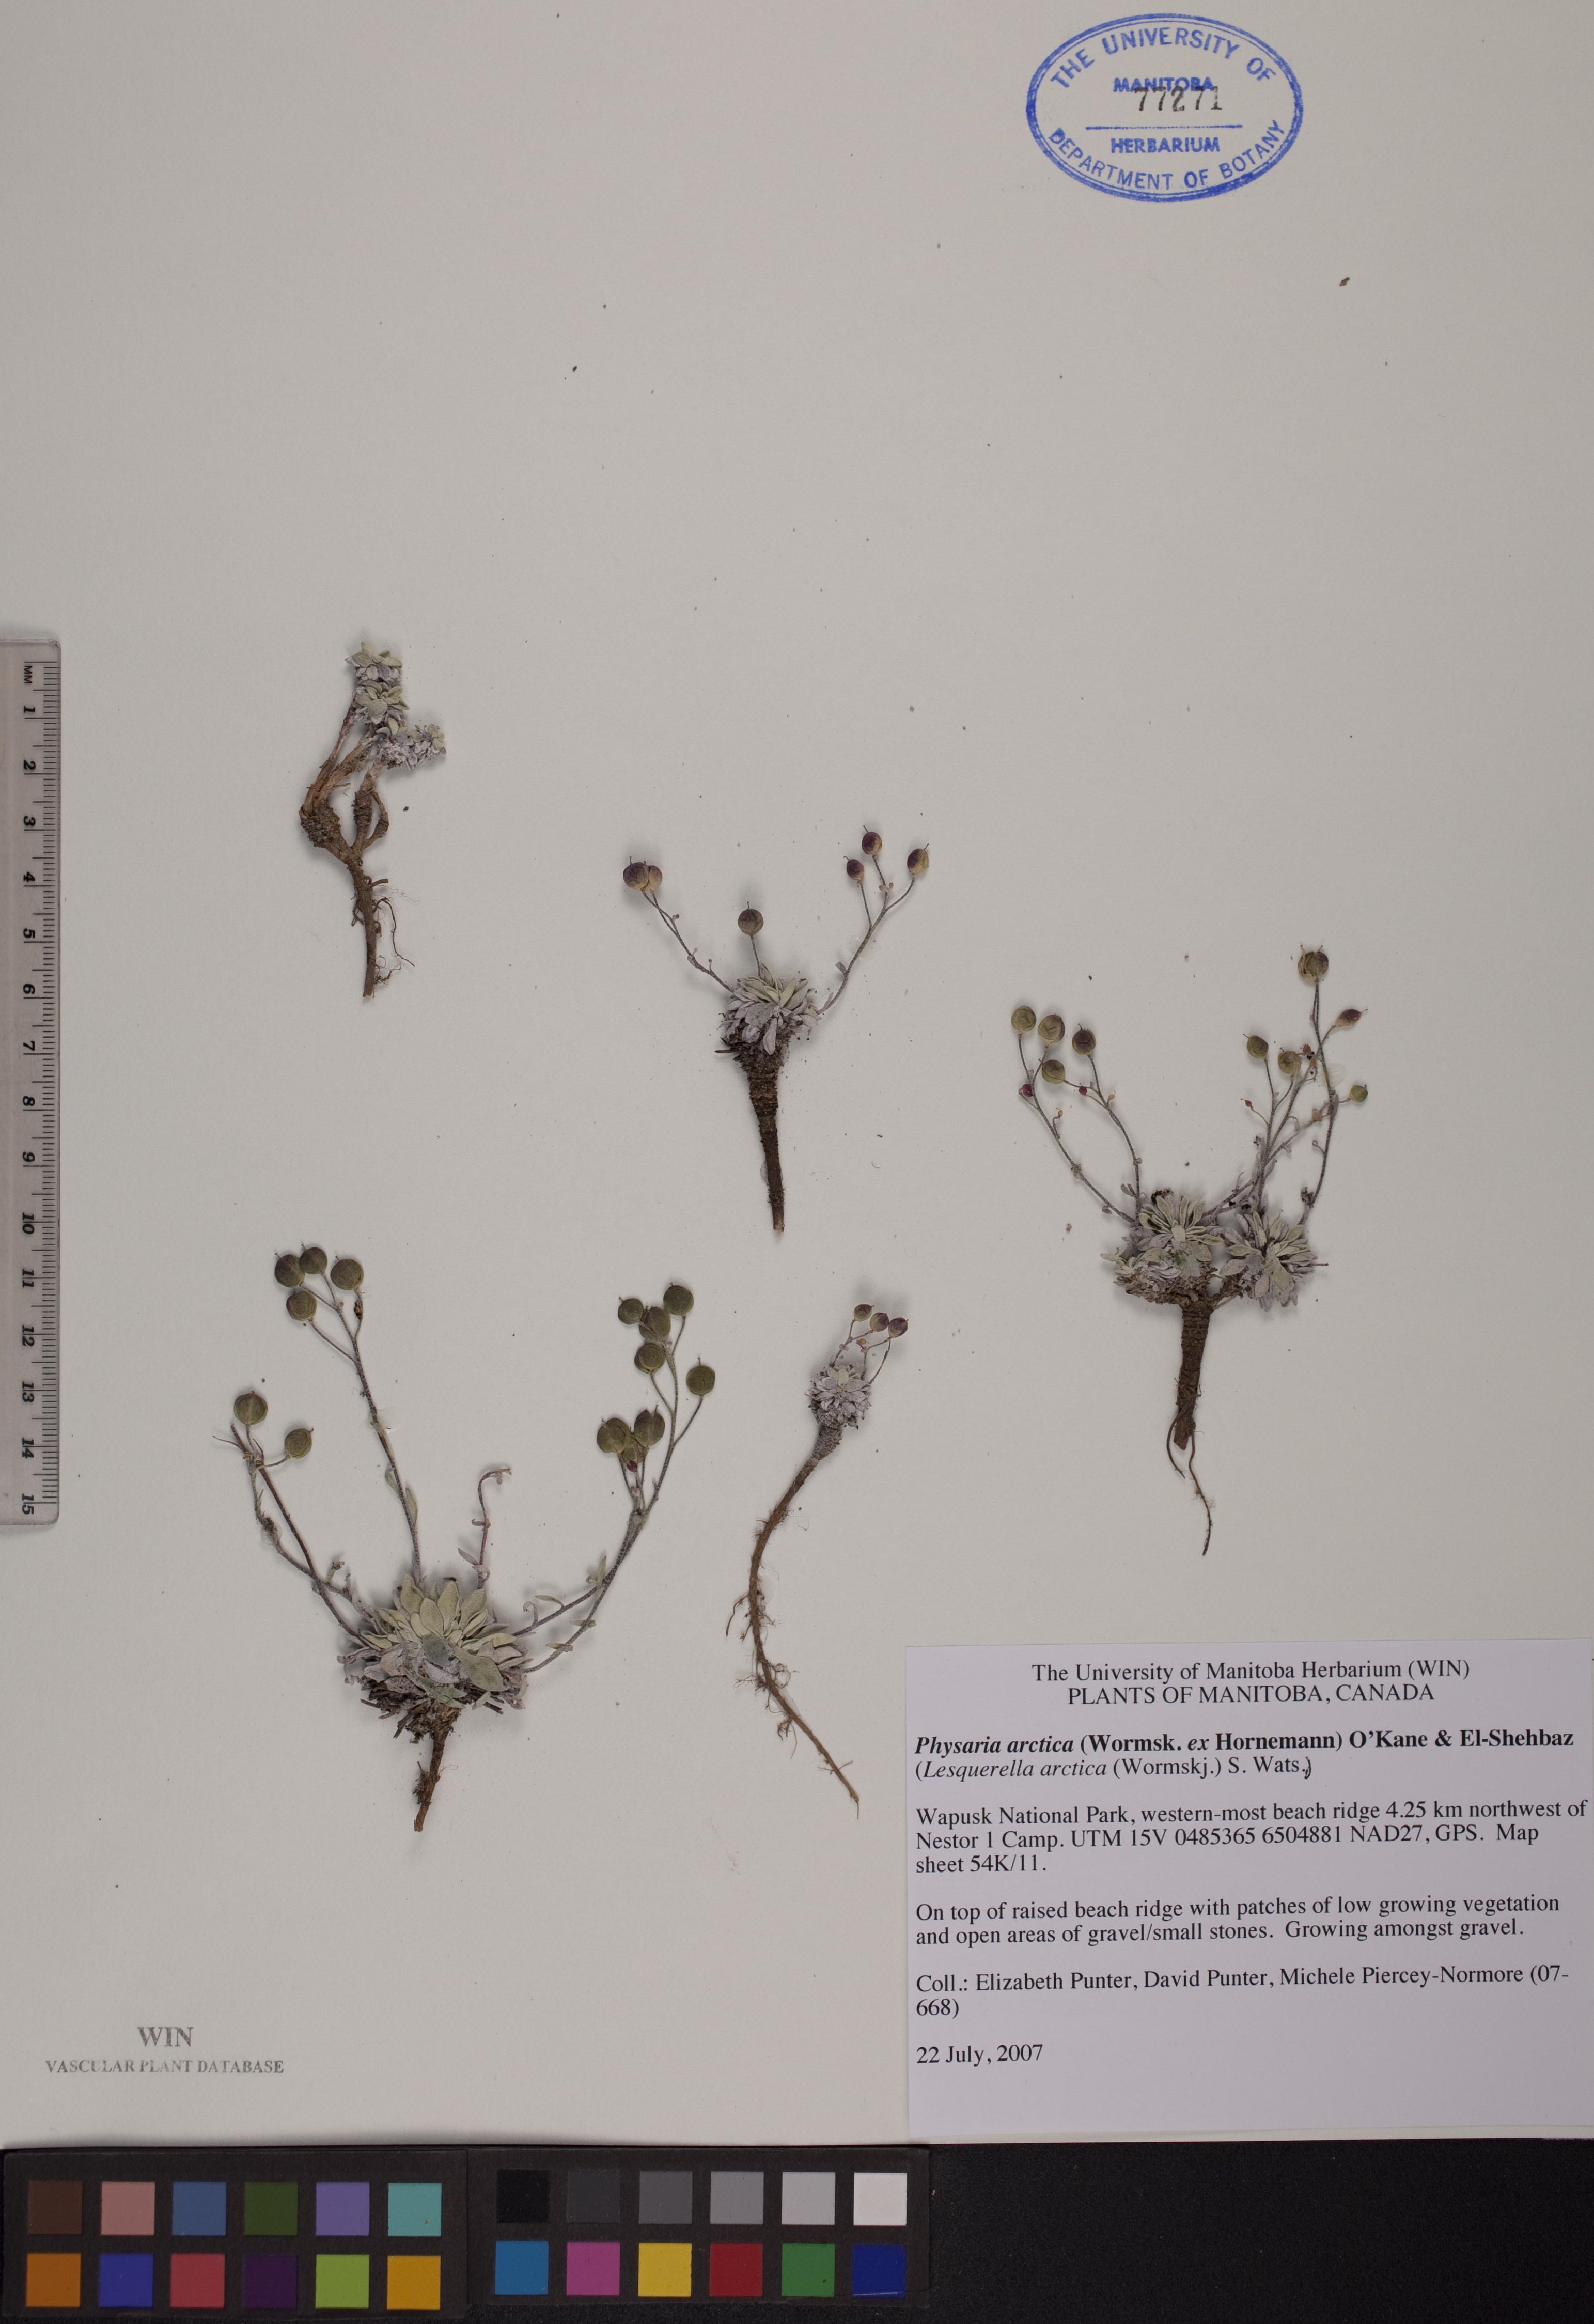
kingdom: Plantae
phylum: Tracheophyta
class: Magnoliopsida
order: Brassicales
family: Brassicaceae
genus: Physaria
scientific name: Physaria arctica
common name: Arctic bladderpod
